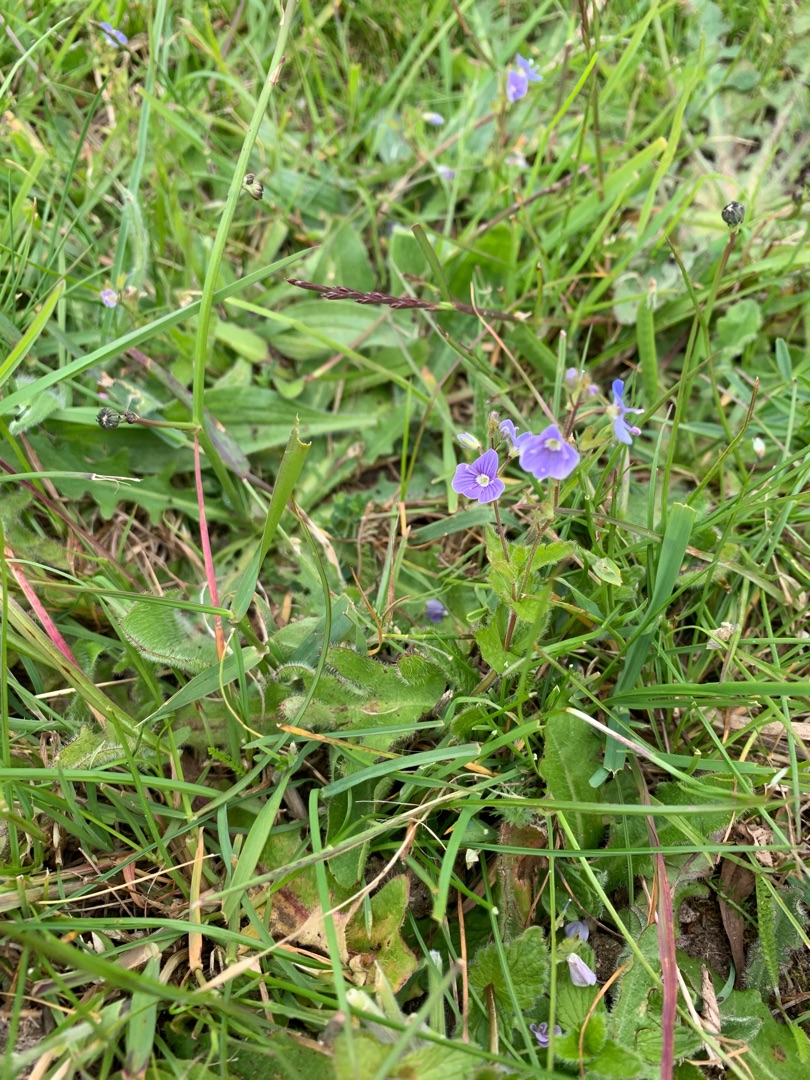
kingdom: Plantae
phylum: Tracheophyta
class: Magnoliopsida
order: Lamiales
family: Plantaginaceae
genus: Veronica
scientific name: Veronica chamaedrys
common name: Tveskægget ærenpris
